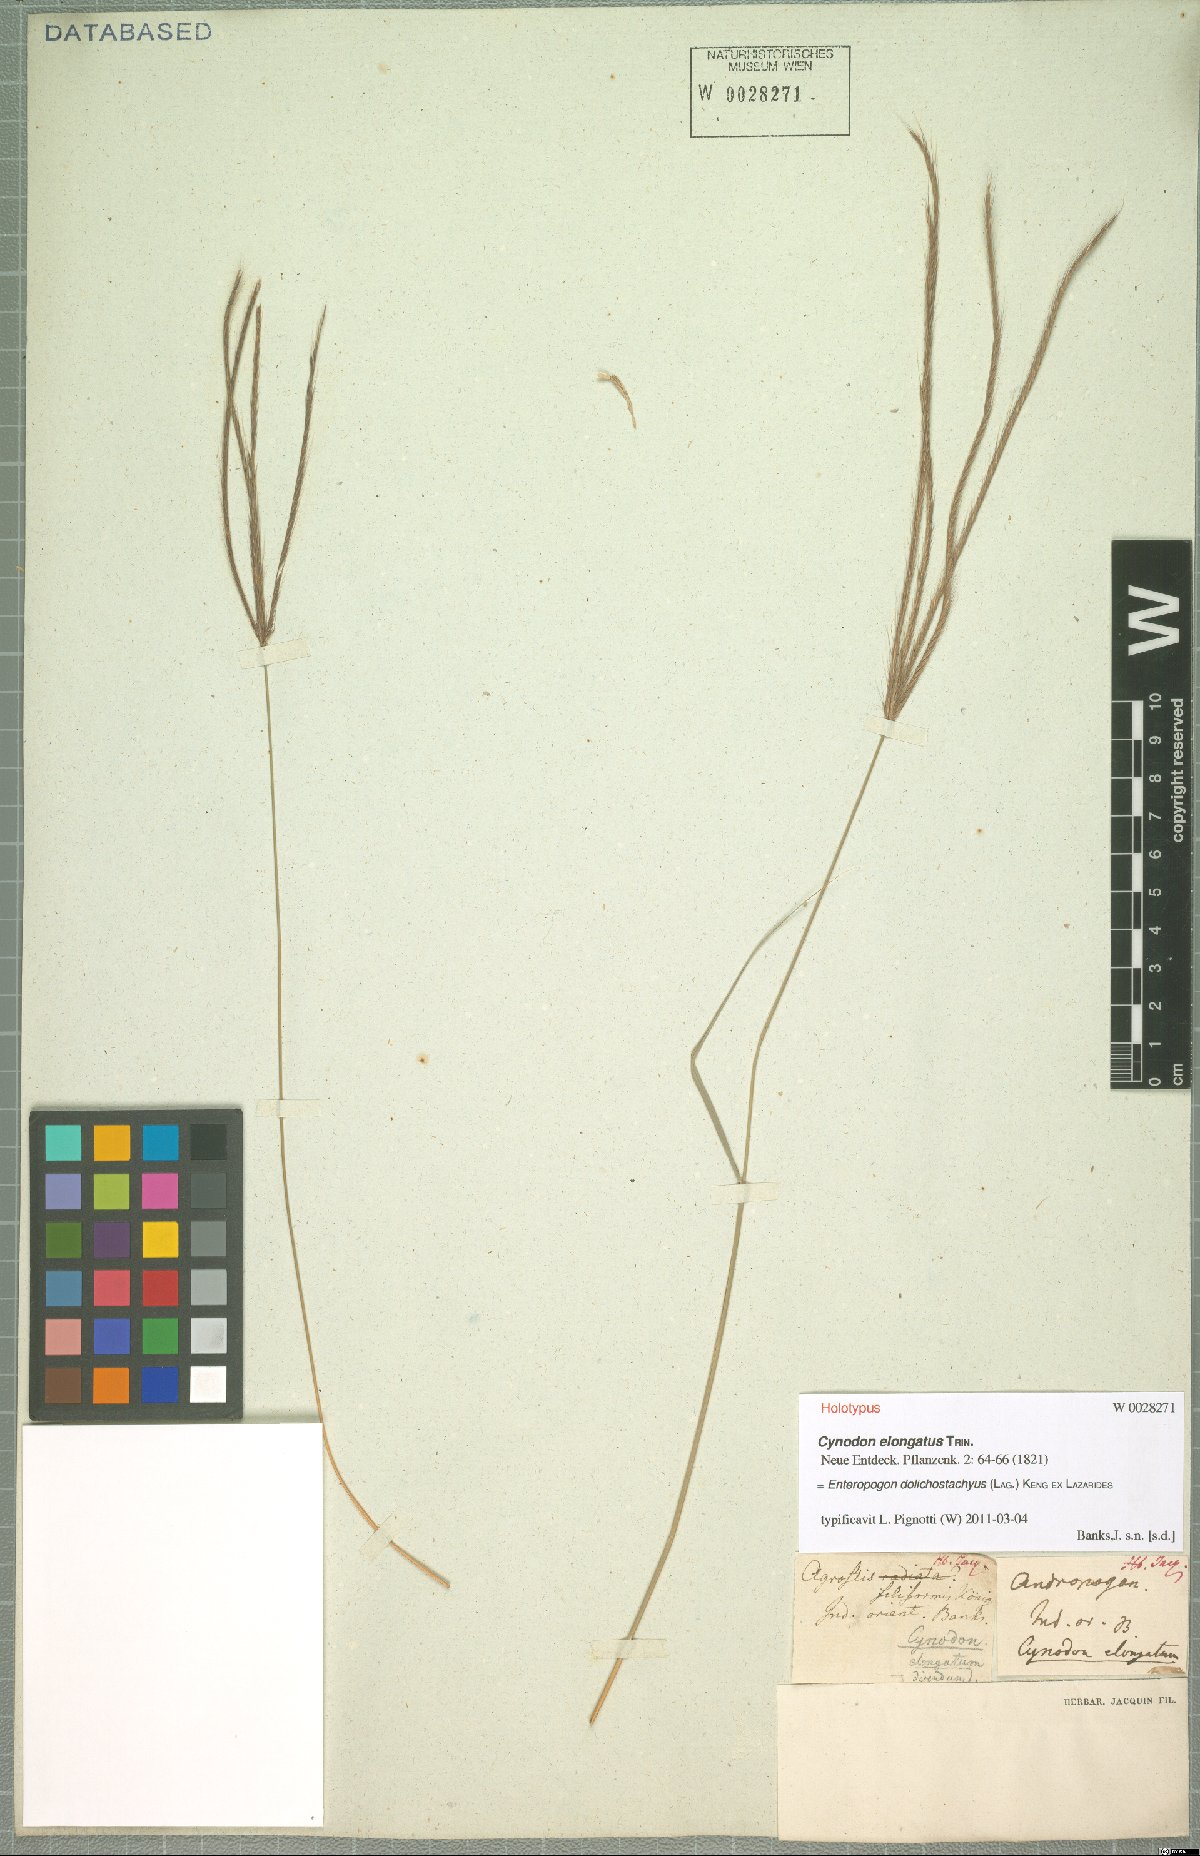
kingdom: Plantae
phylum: Tracheophyta
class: Liliopsida
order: Poales
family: Poaceae
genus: Enteropogon
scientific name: Enteropogon dolichostachyus
